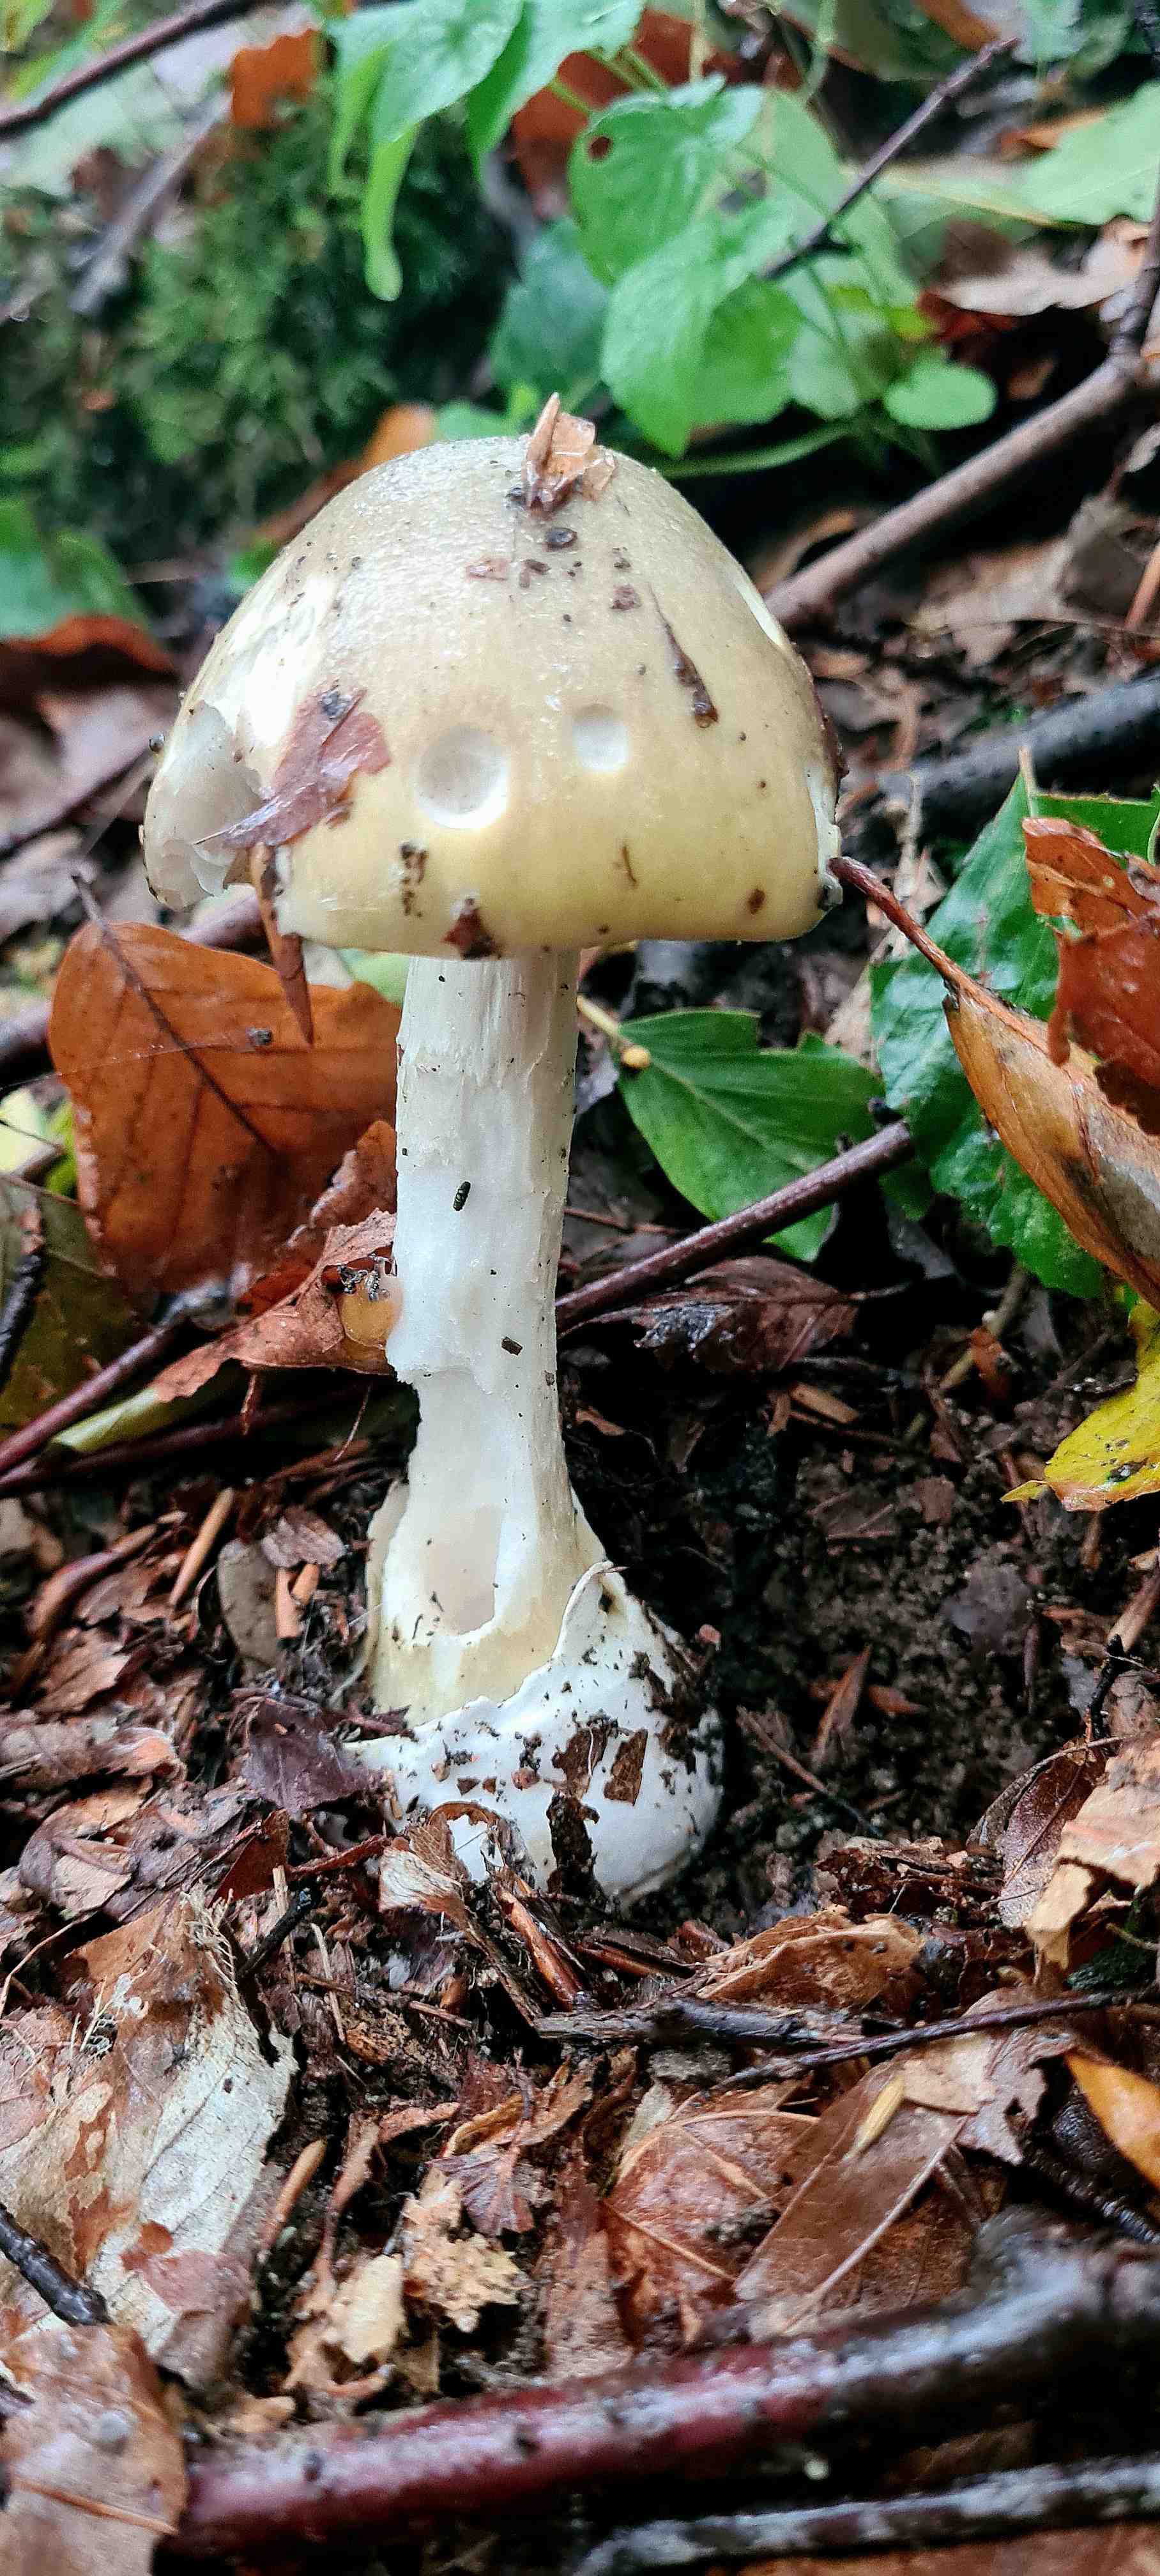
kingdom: Fungi
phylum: Basidiomycota
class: Agaricomycetes
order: Agaricales
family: Amanitaceae
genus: Amanita
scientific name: Amanita phalloides
